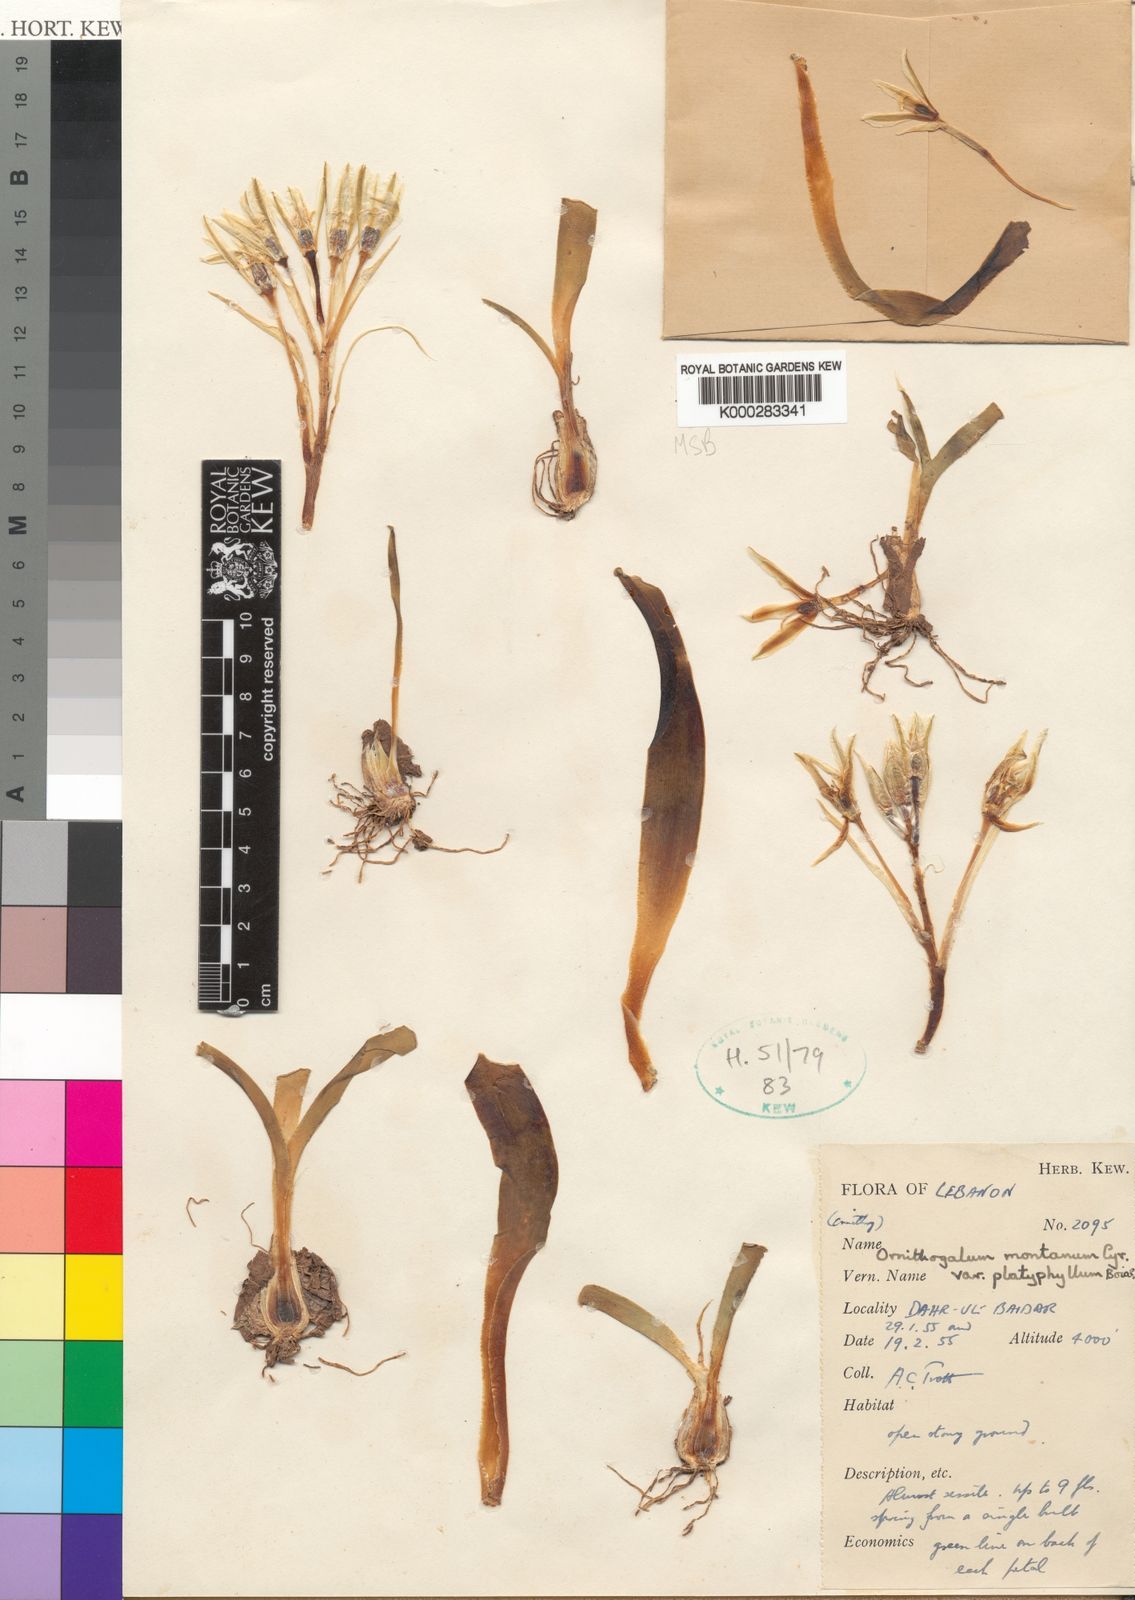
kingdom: Plantae
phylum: Tracheophyta
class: Liliopsida
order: Asparagales
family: Asparagaceae
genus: Ornithogalum
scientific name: Ornithogalum montanum
